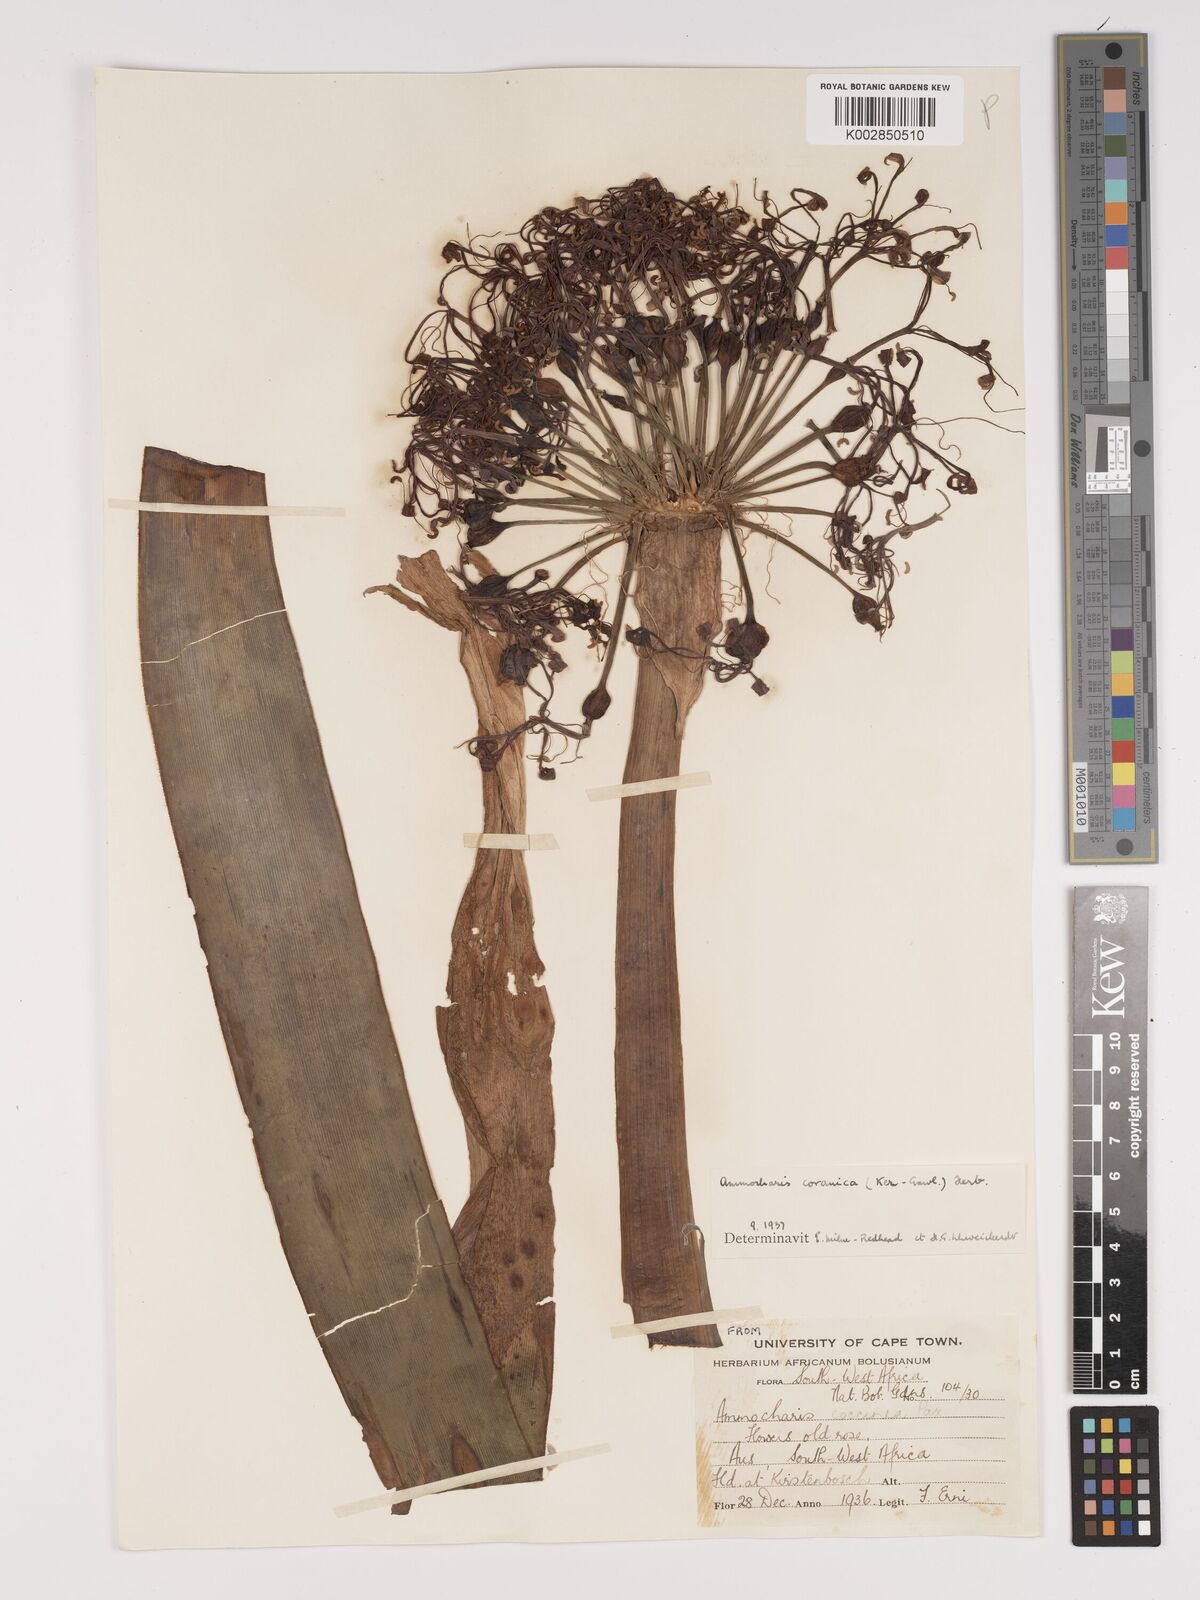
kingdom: Plantae
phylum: Tracheophyta
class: Liliopsida
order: Asparagales
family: Amaryllidaceae
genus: Ammocharis
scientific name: Ammocharis coranica
